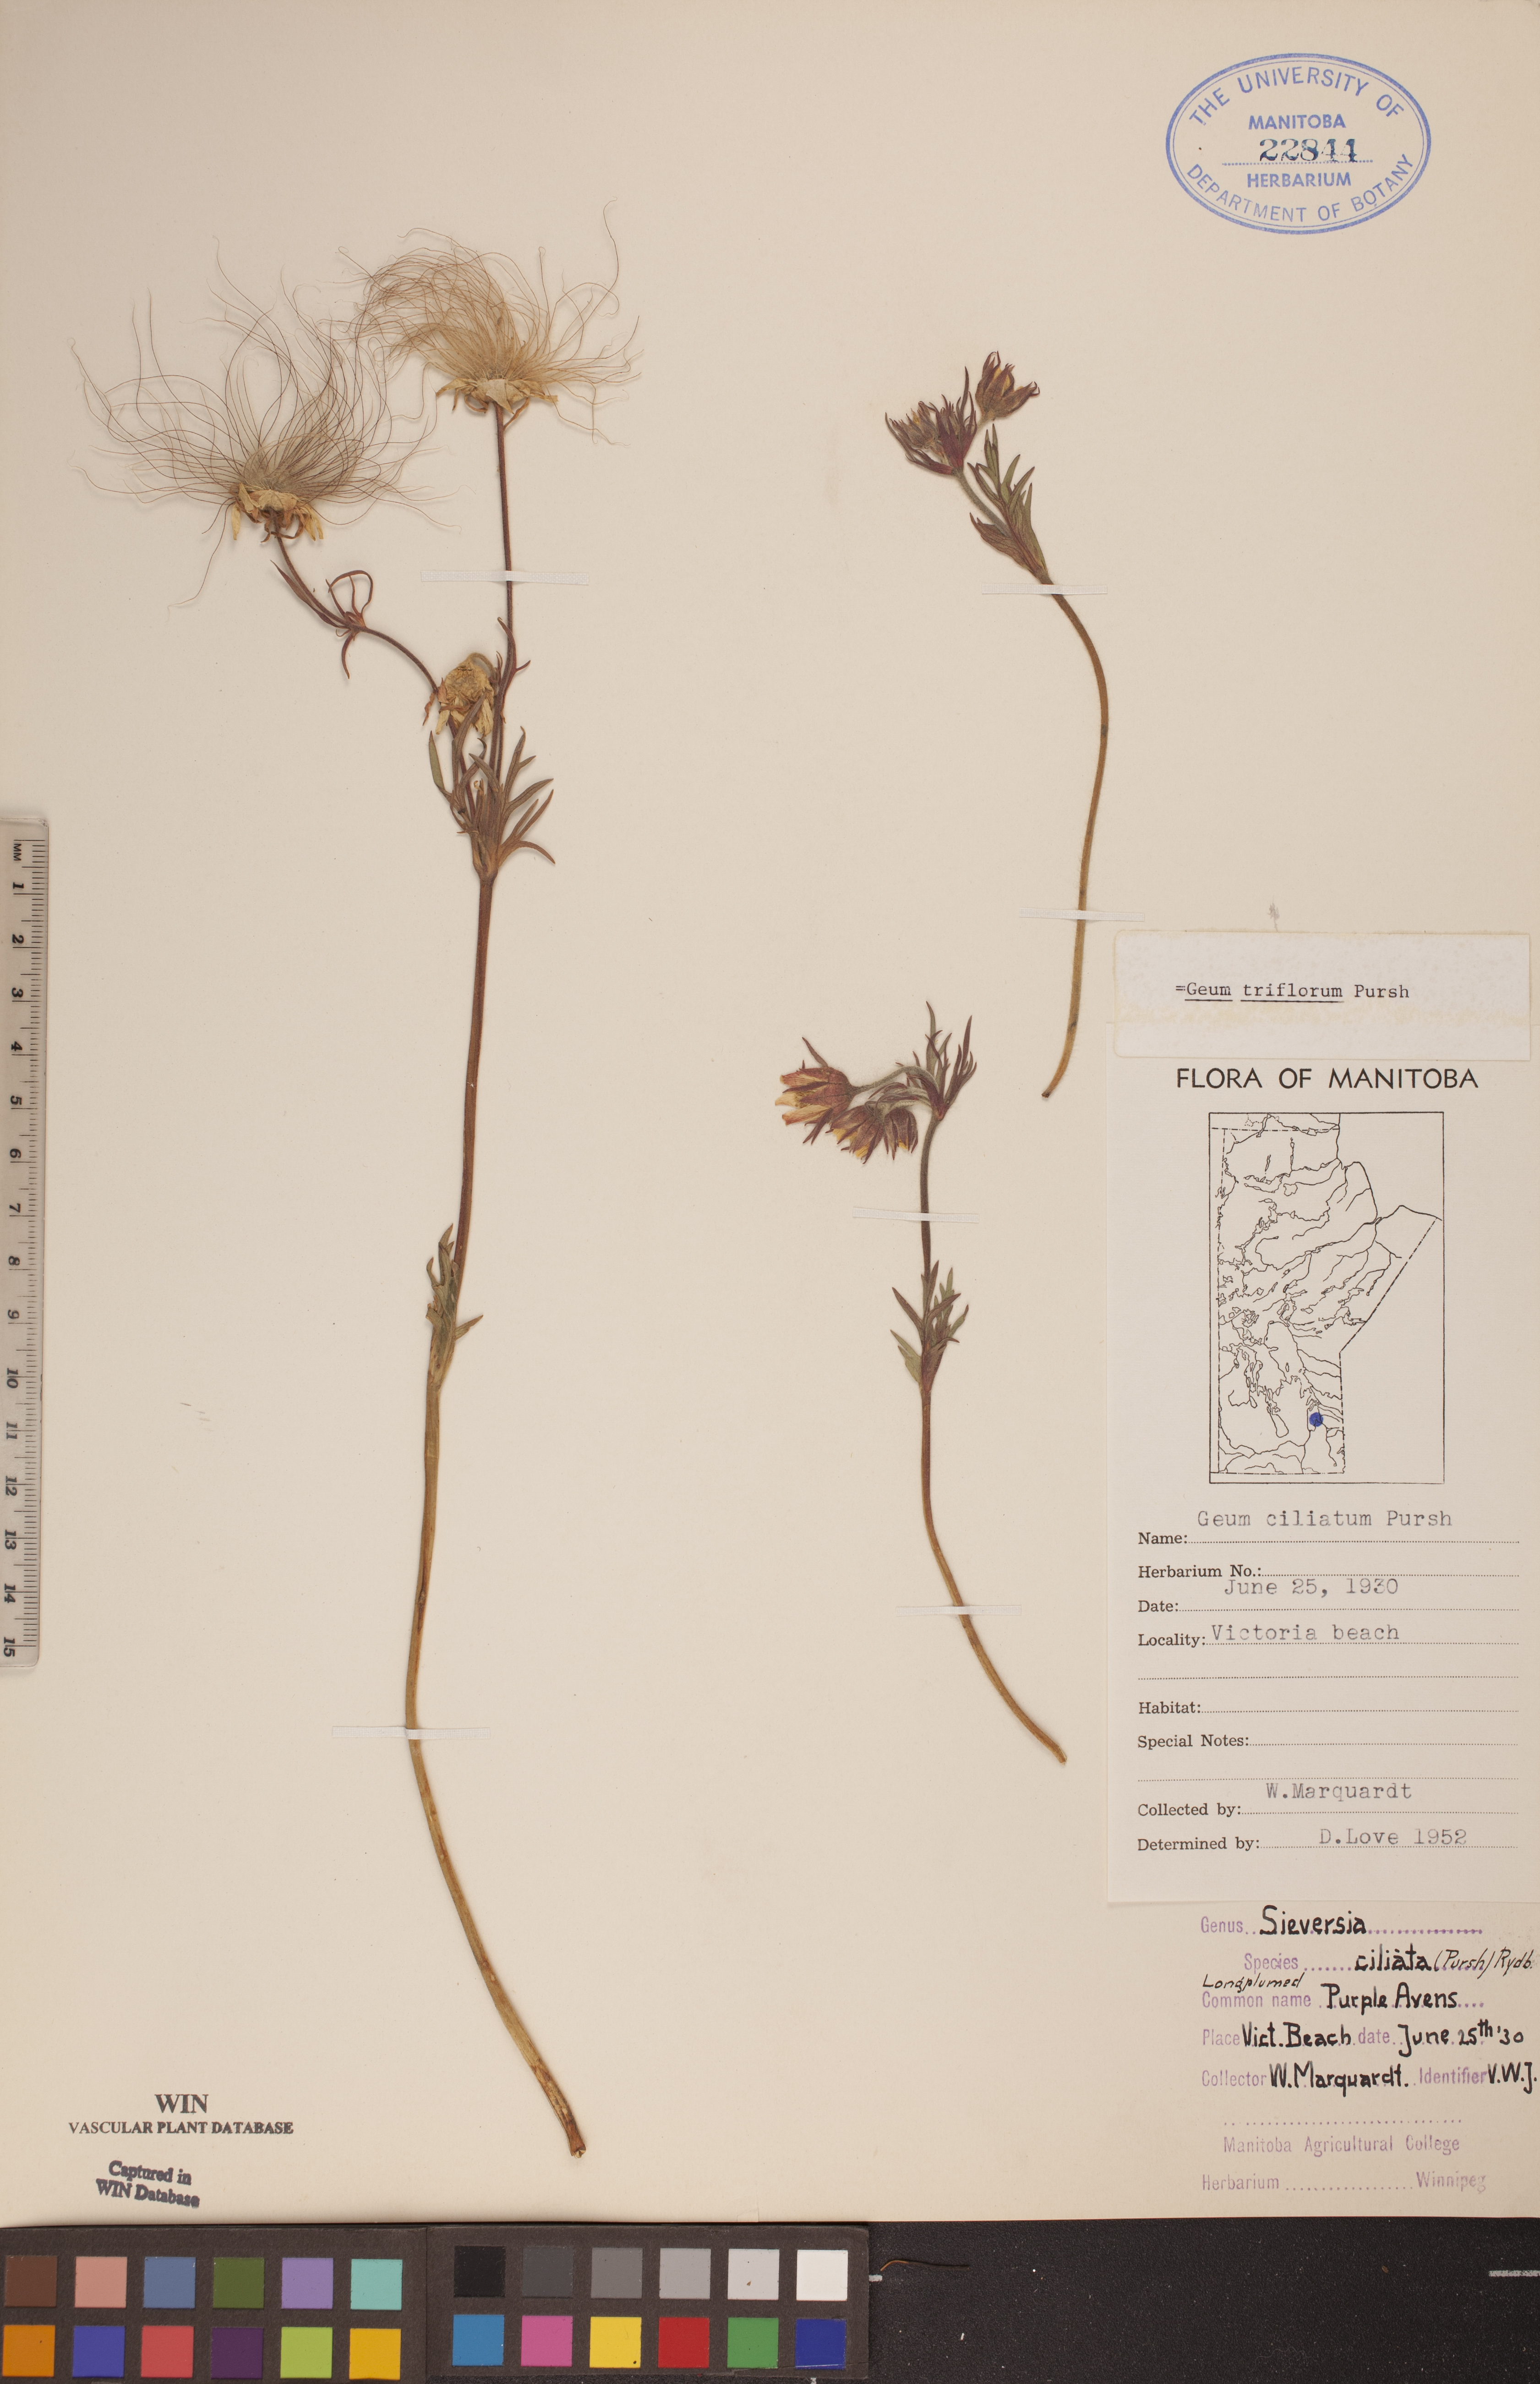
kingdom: Plantae
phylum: Tracheophyta
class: Magnoliopsida
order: Rosales
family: Rosaceae
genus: Geum
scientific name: Geum triflorum
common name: Old man's whiskers
